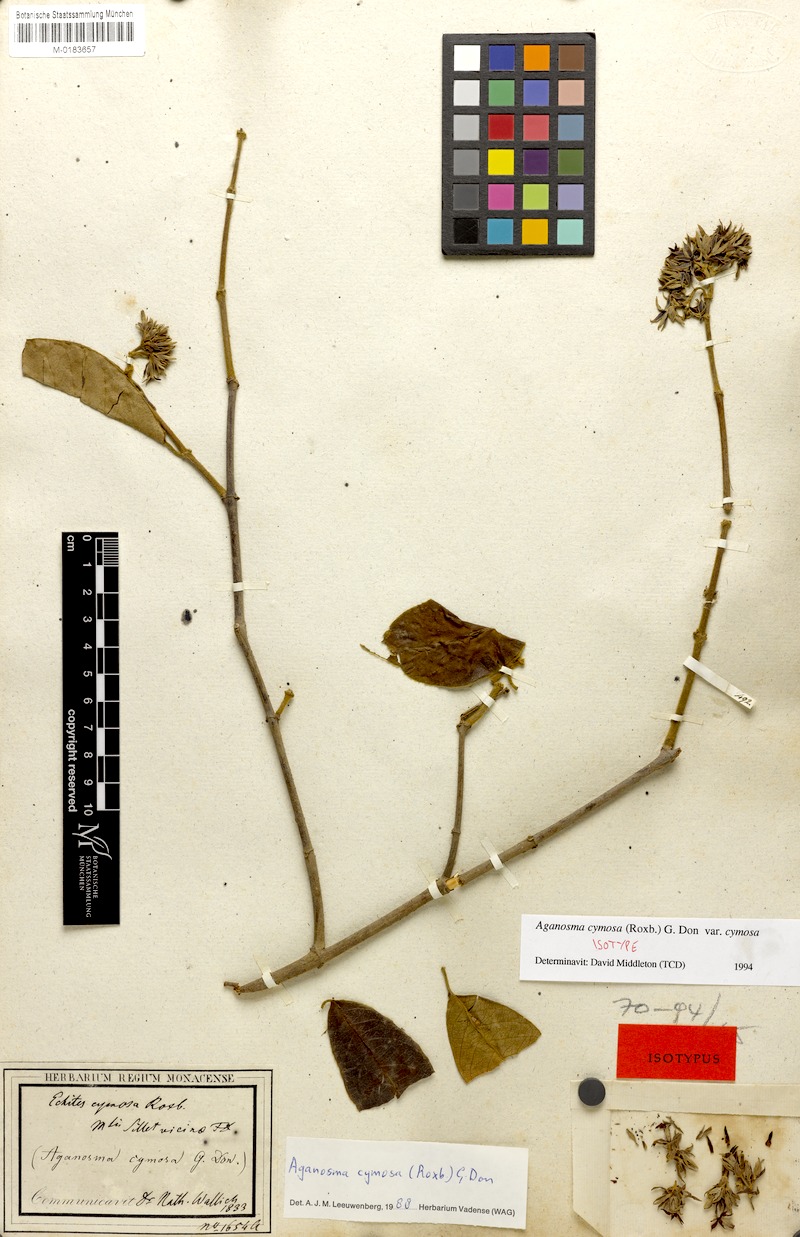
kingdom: Plantae
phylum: Tracheophyta
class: Magnoliopsida
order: Gentianales
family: Apocynaceae
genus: Aganosma
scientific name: Aganosma cymosa
